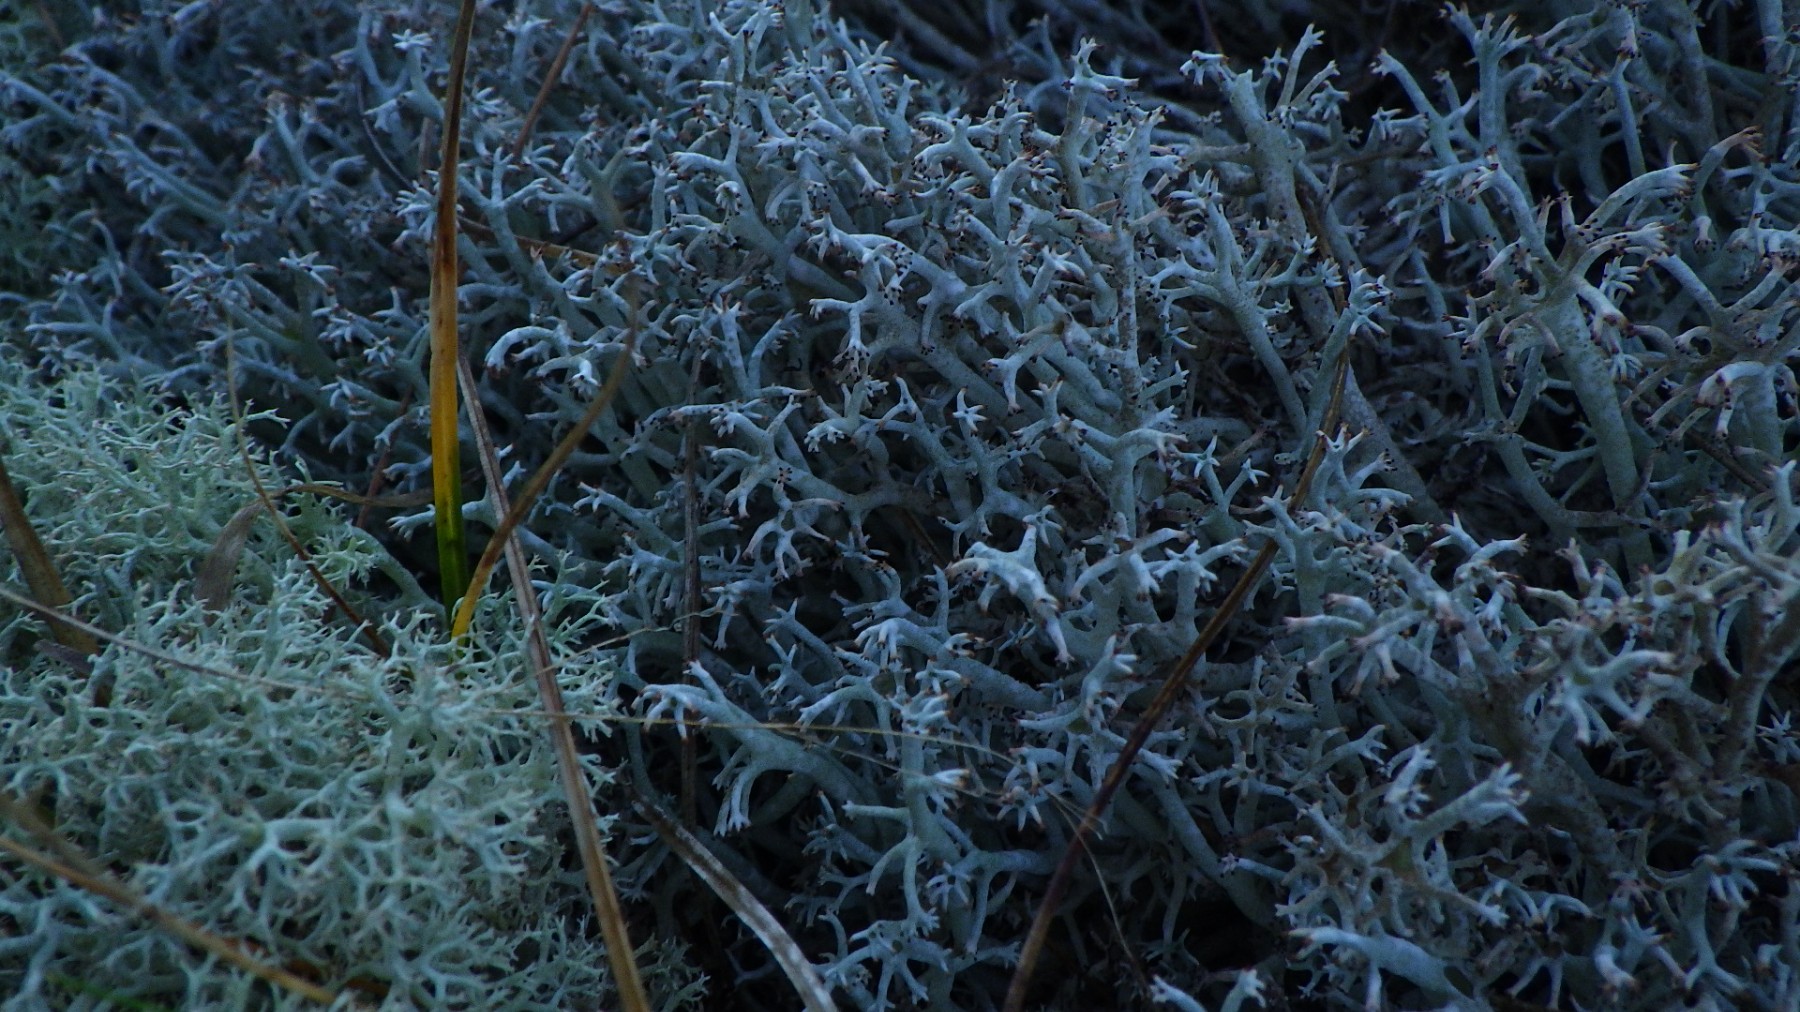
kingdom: Fungi
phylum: Ascomycota
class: Lecanoromycetes
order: Lecanorales
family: Cladoniaceae
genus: Cladonia
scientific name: Cladonia rangiferina
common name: askegrå rensdyrlav
